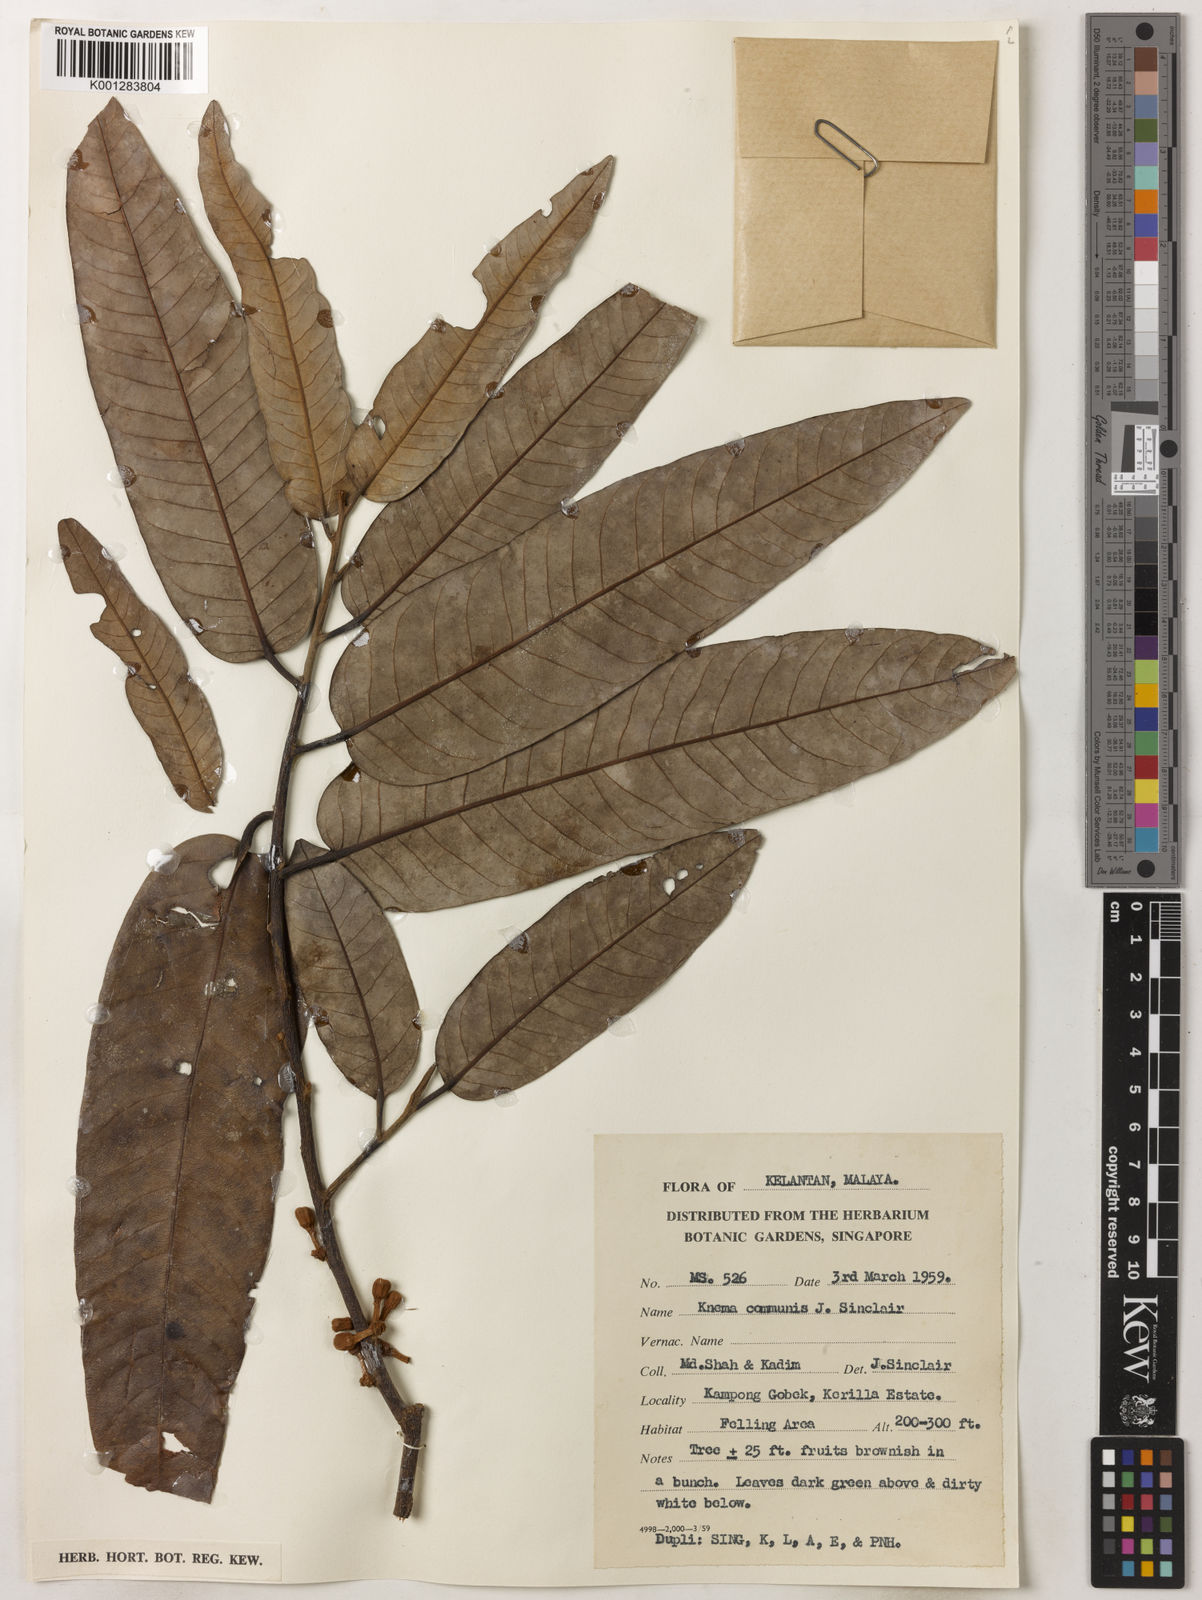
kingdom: Plantae
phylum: Tracheophyta
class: Magnoliopsida
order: Magnoliales
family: Myristicaceae
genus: Knema
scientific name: Knema communis
